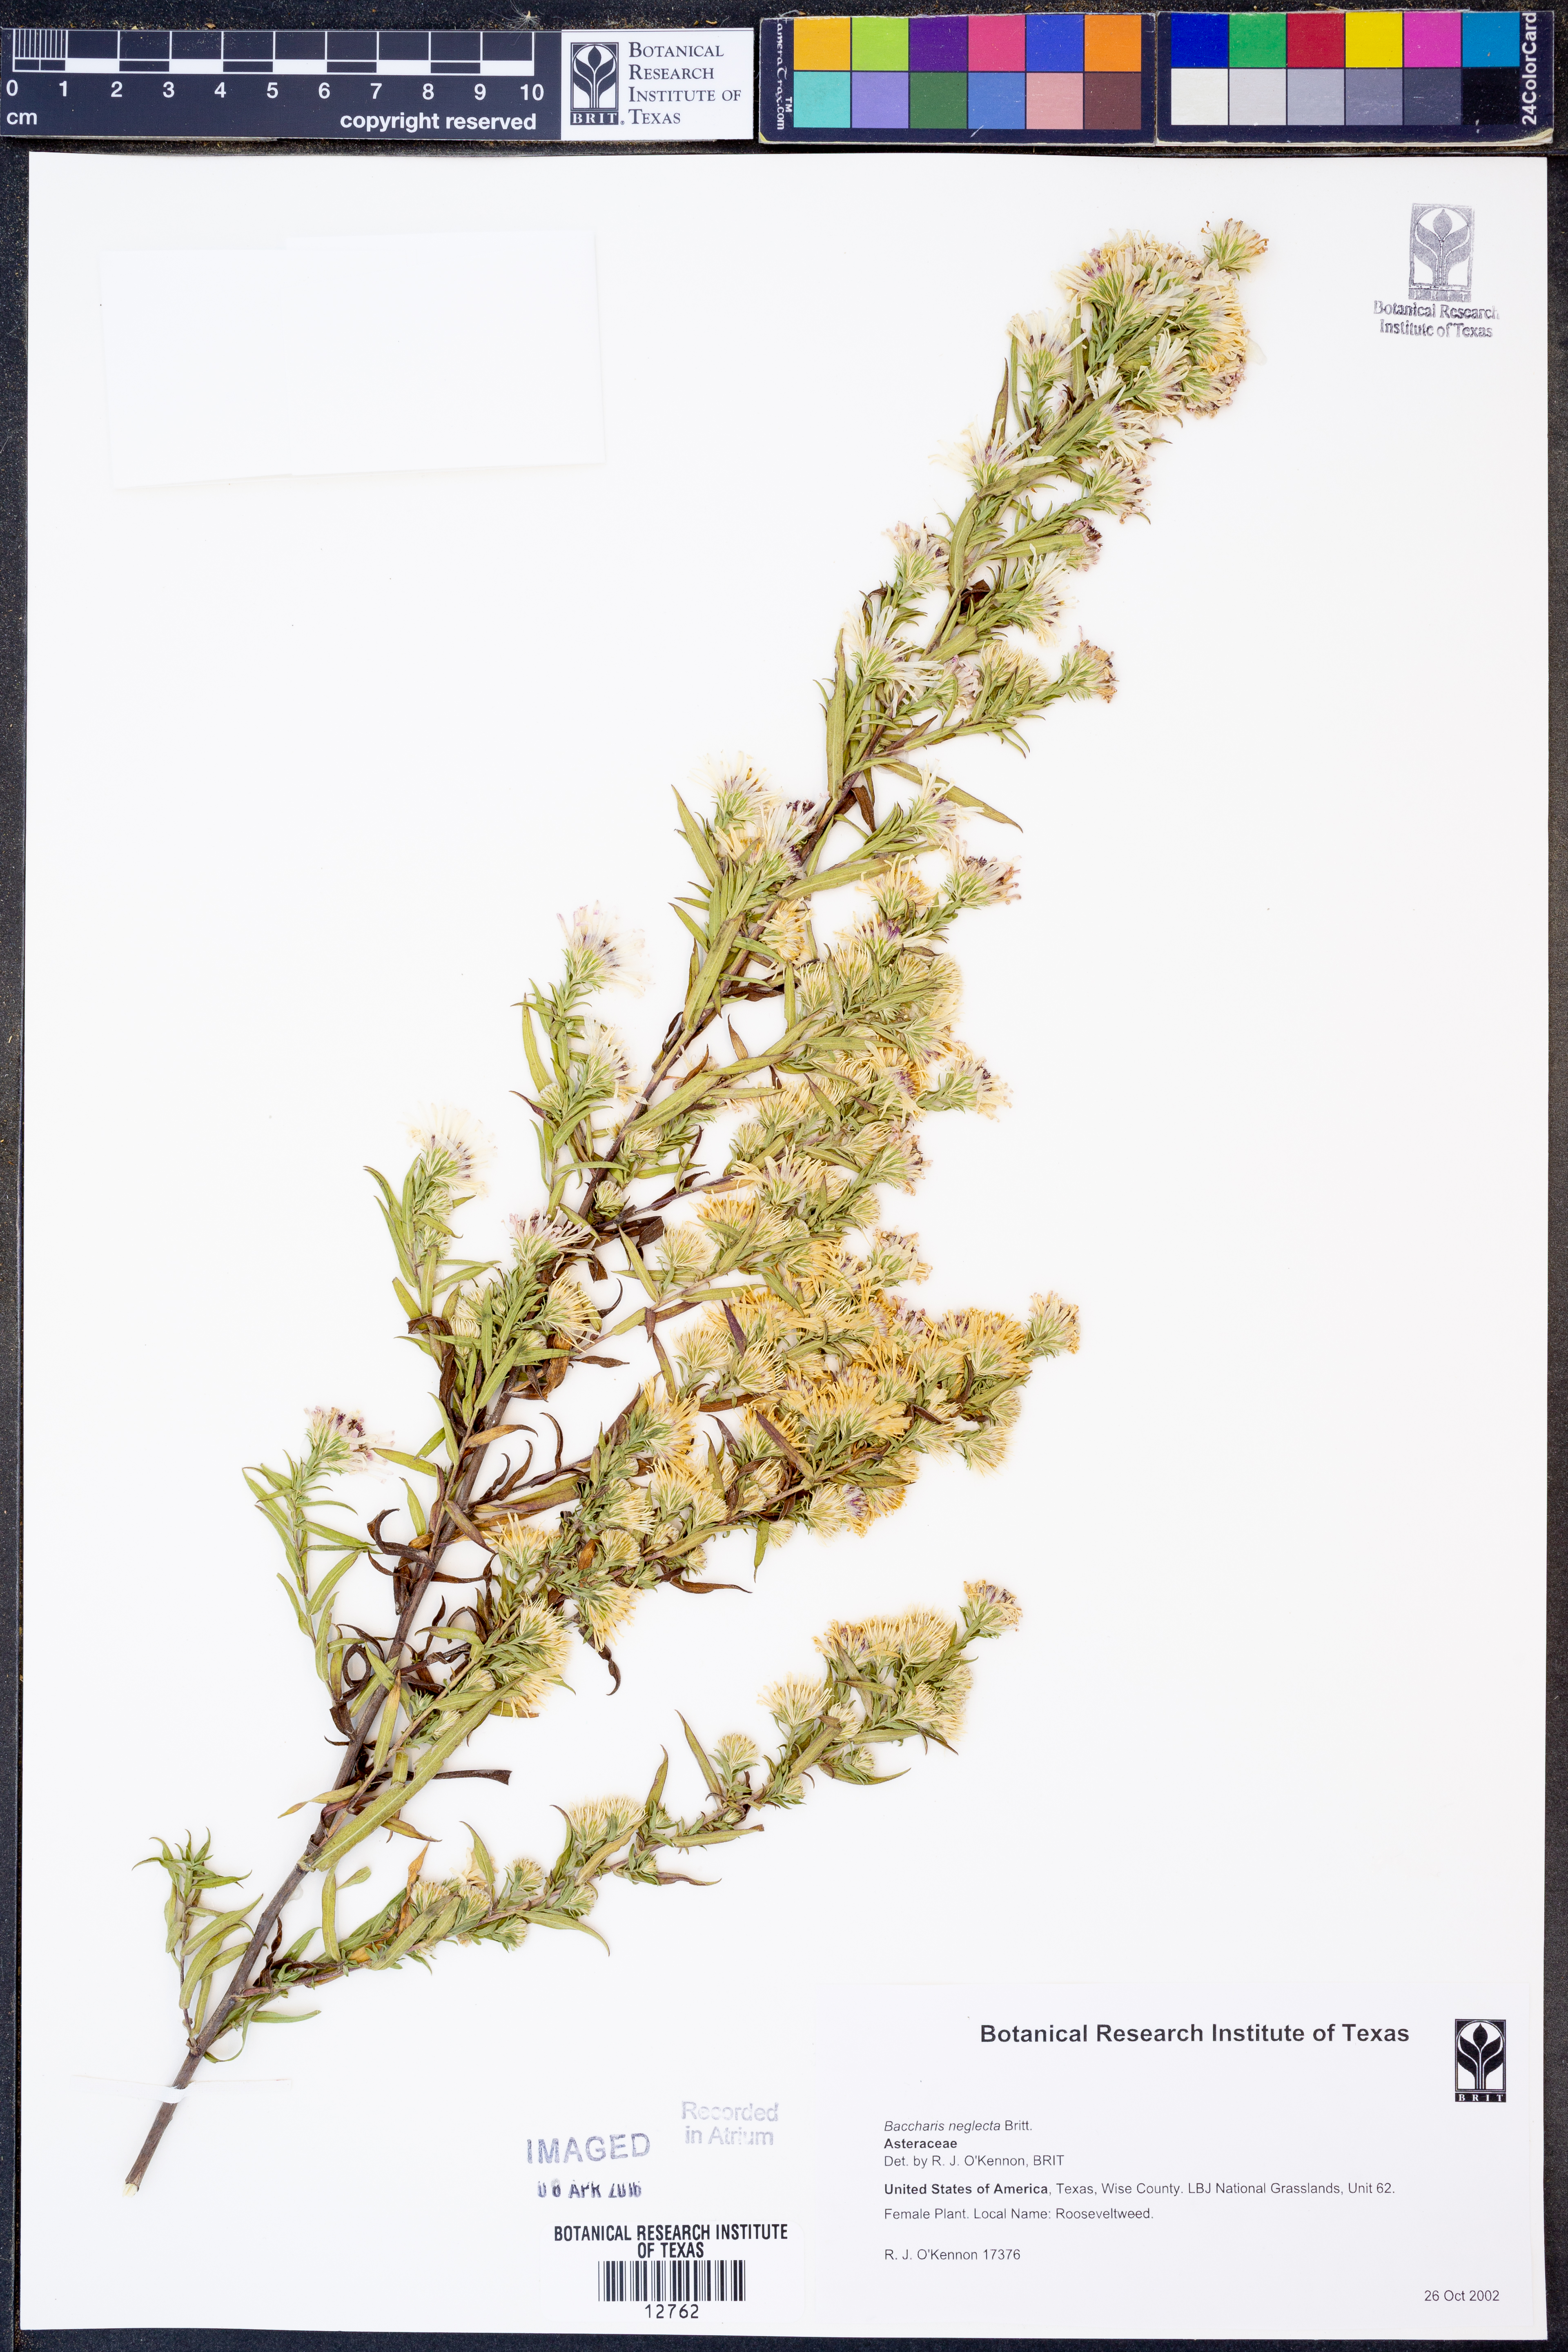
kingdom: Plantae
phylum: Tracheophyta
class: Magnoliopsida
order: Asterales
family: Asteraceae
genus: Baccharis
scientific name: Baccharis neglecta
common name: Roosevelt-weed
